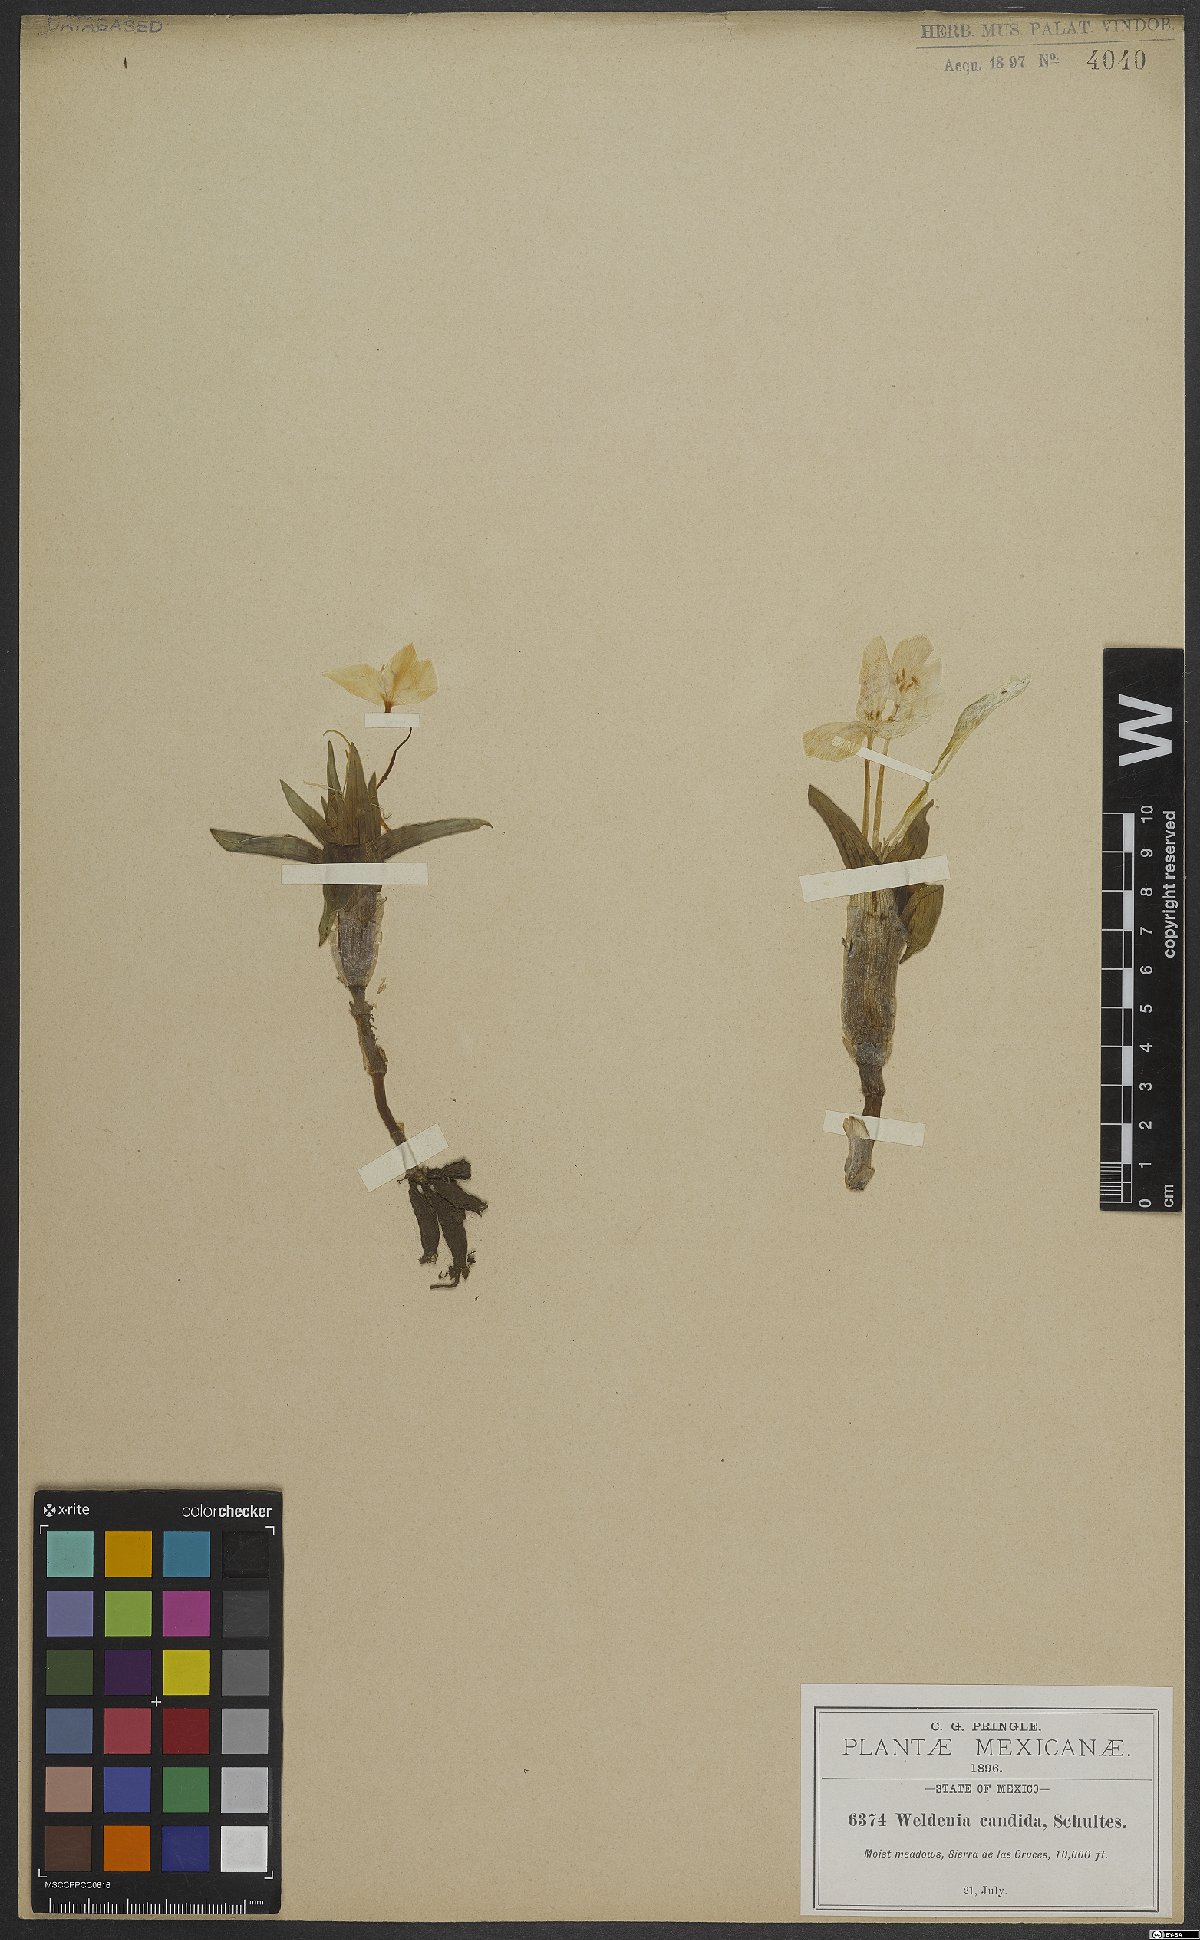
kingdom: Plantae
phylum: Tracheophyta
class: Liliopsida
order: Commelinales
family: Commelinaceae
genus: Weldenia
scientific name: Weldenia candida
